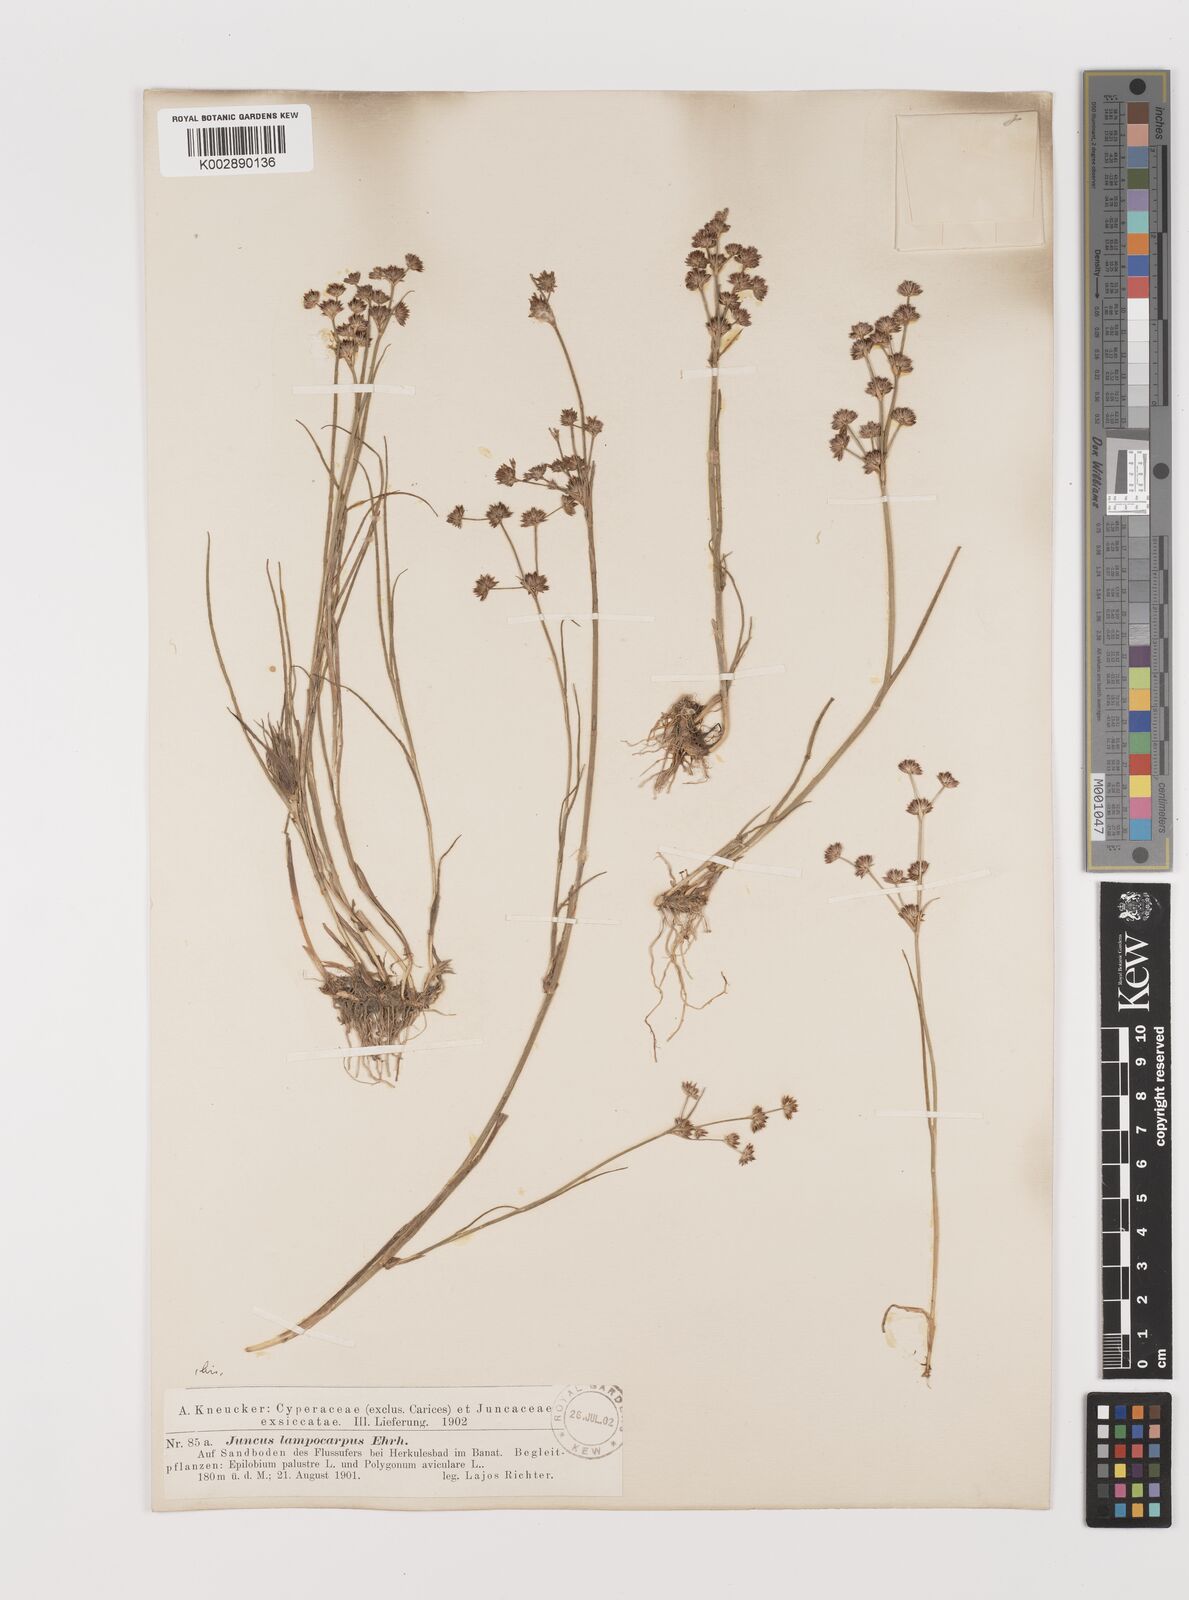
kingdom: Plantae
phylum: Tracheophyta
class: Liliopsida
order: Poales
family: Juncaceae
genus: Juncus
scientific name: Juncus articulatus
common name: Jointed rush
